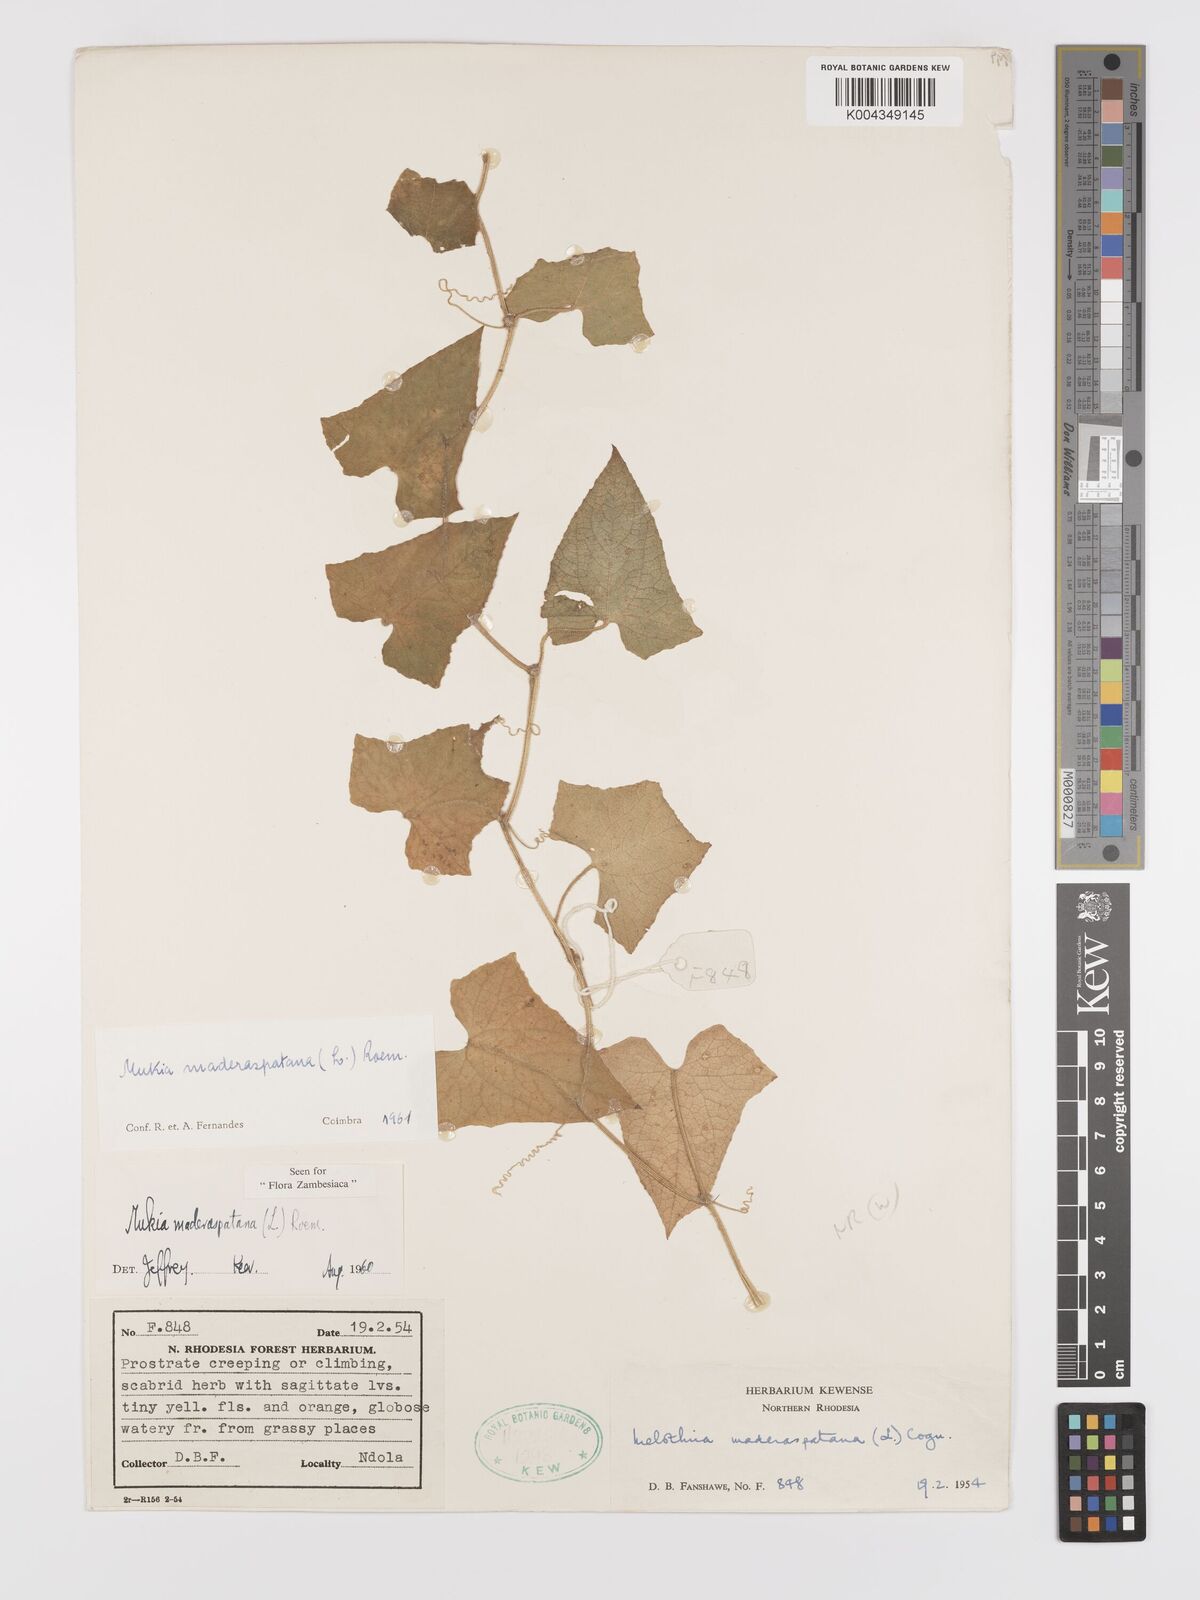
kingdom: Plantae
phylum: Tracheophyta
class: Magnoliopsida
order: Cucurbitales
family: Cucurbitaceae
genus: Cucumis
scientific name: Cucumis maderaspatanus
